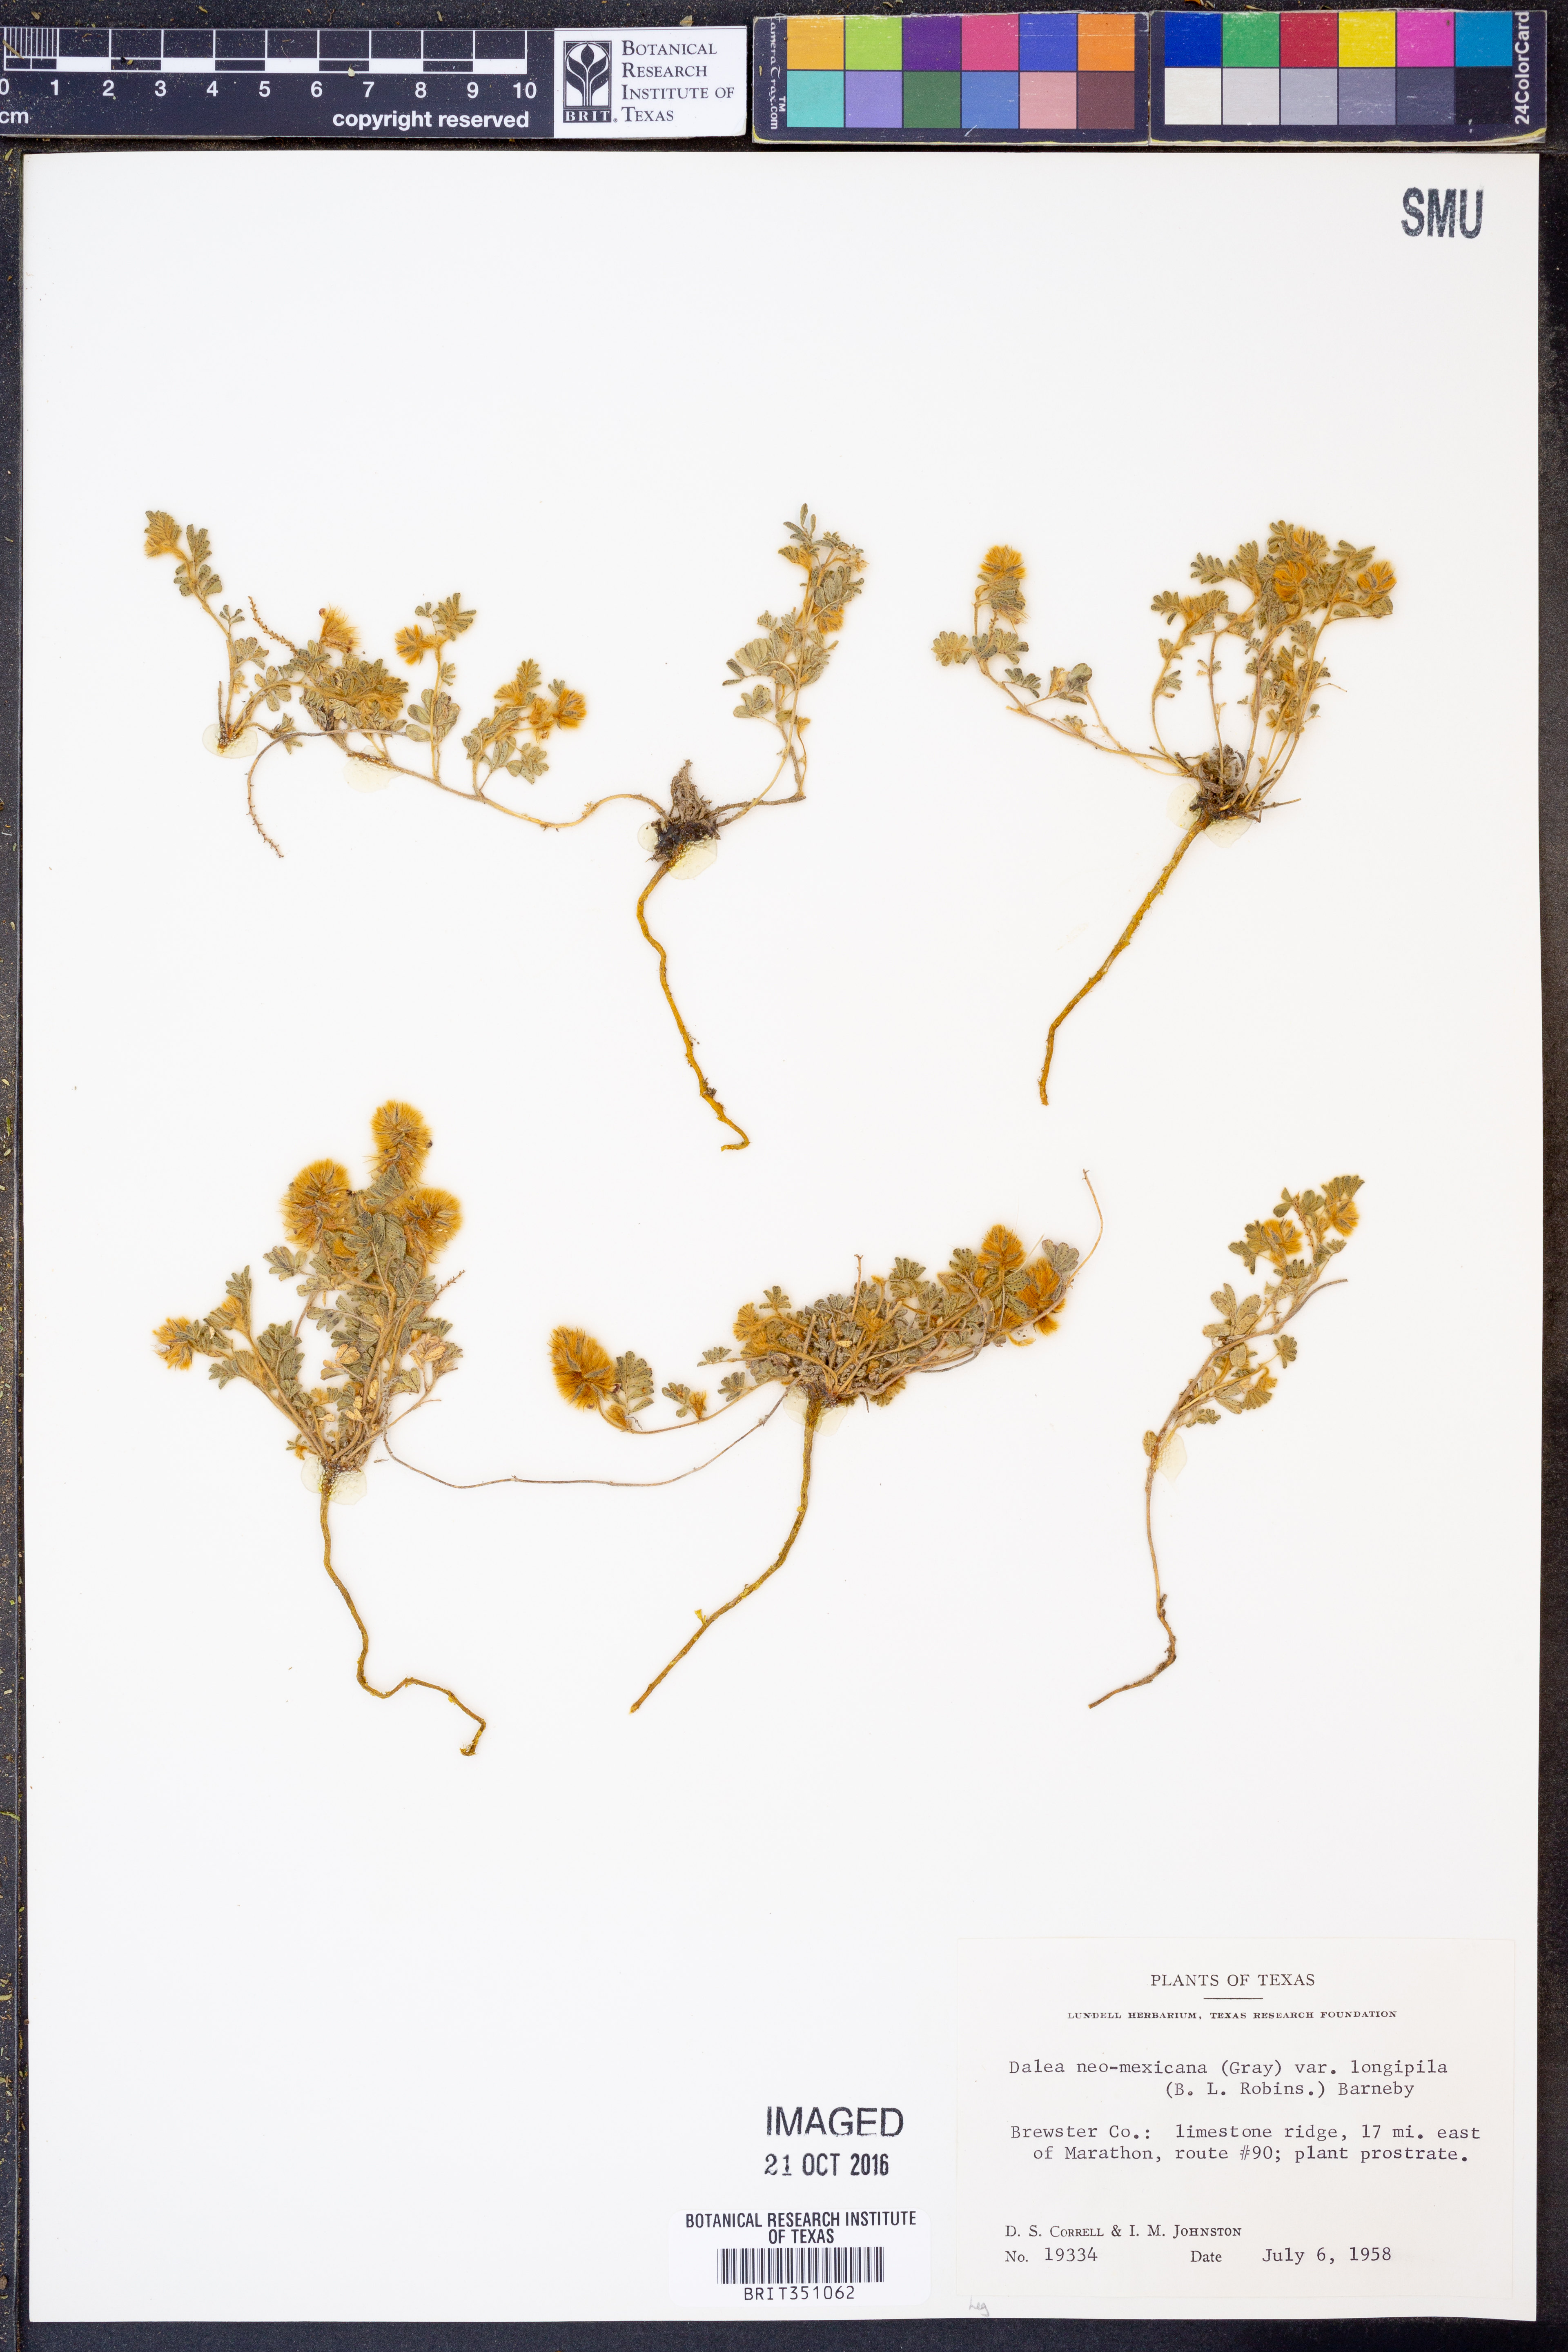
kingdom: Plantae
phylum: Tracheophyta
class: Magnoliopsida
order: Fabales
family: Fabaceae
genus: Dalea
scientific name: Dalea neomexicana
